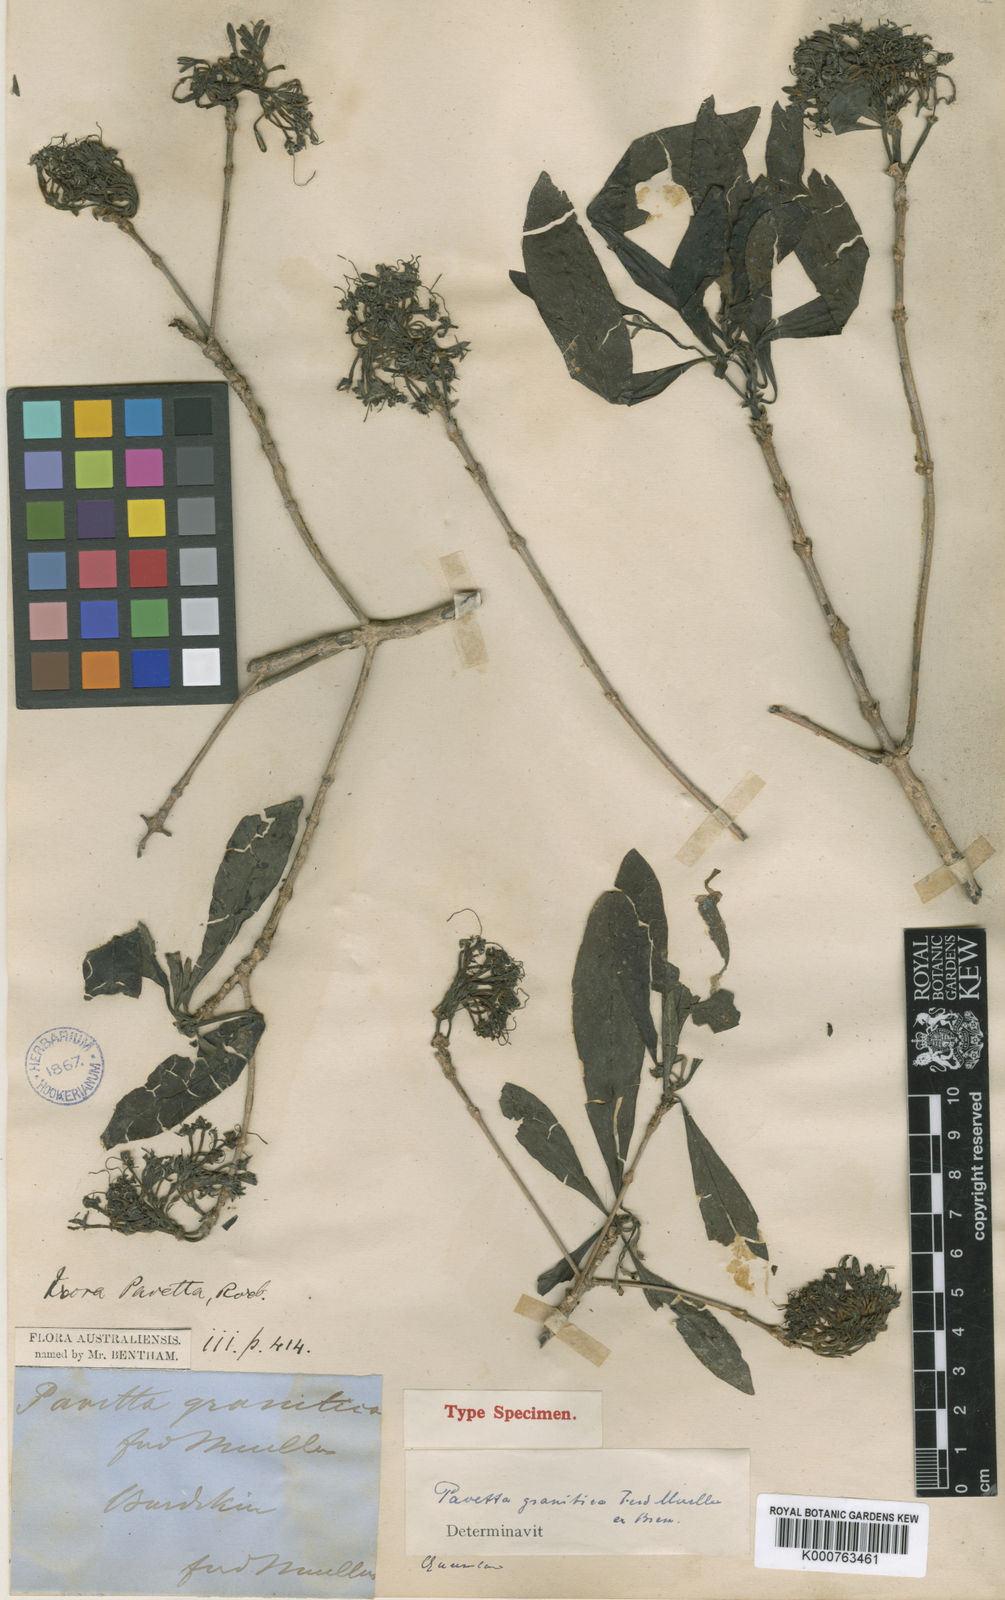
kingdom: Plantae
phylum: Tracheophyta
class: Magnoliopsida
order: Gentianales
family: Rubiaceae
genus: Pavetta
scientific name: Pavetta granitica
